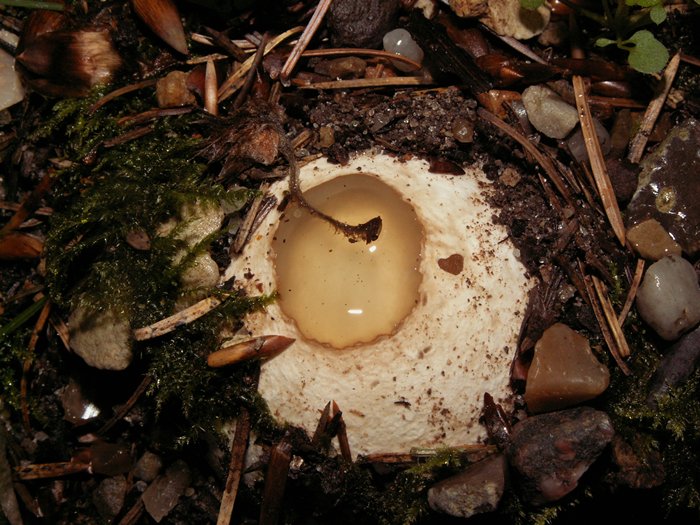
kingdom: Fungi
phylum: Basidiomycota
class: Agaricomycetes
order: Phallales
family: Phallaceae
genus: Phallus
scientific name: Phallus impudicus
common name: almindelig stinksvamp
